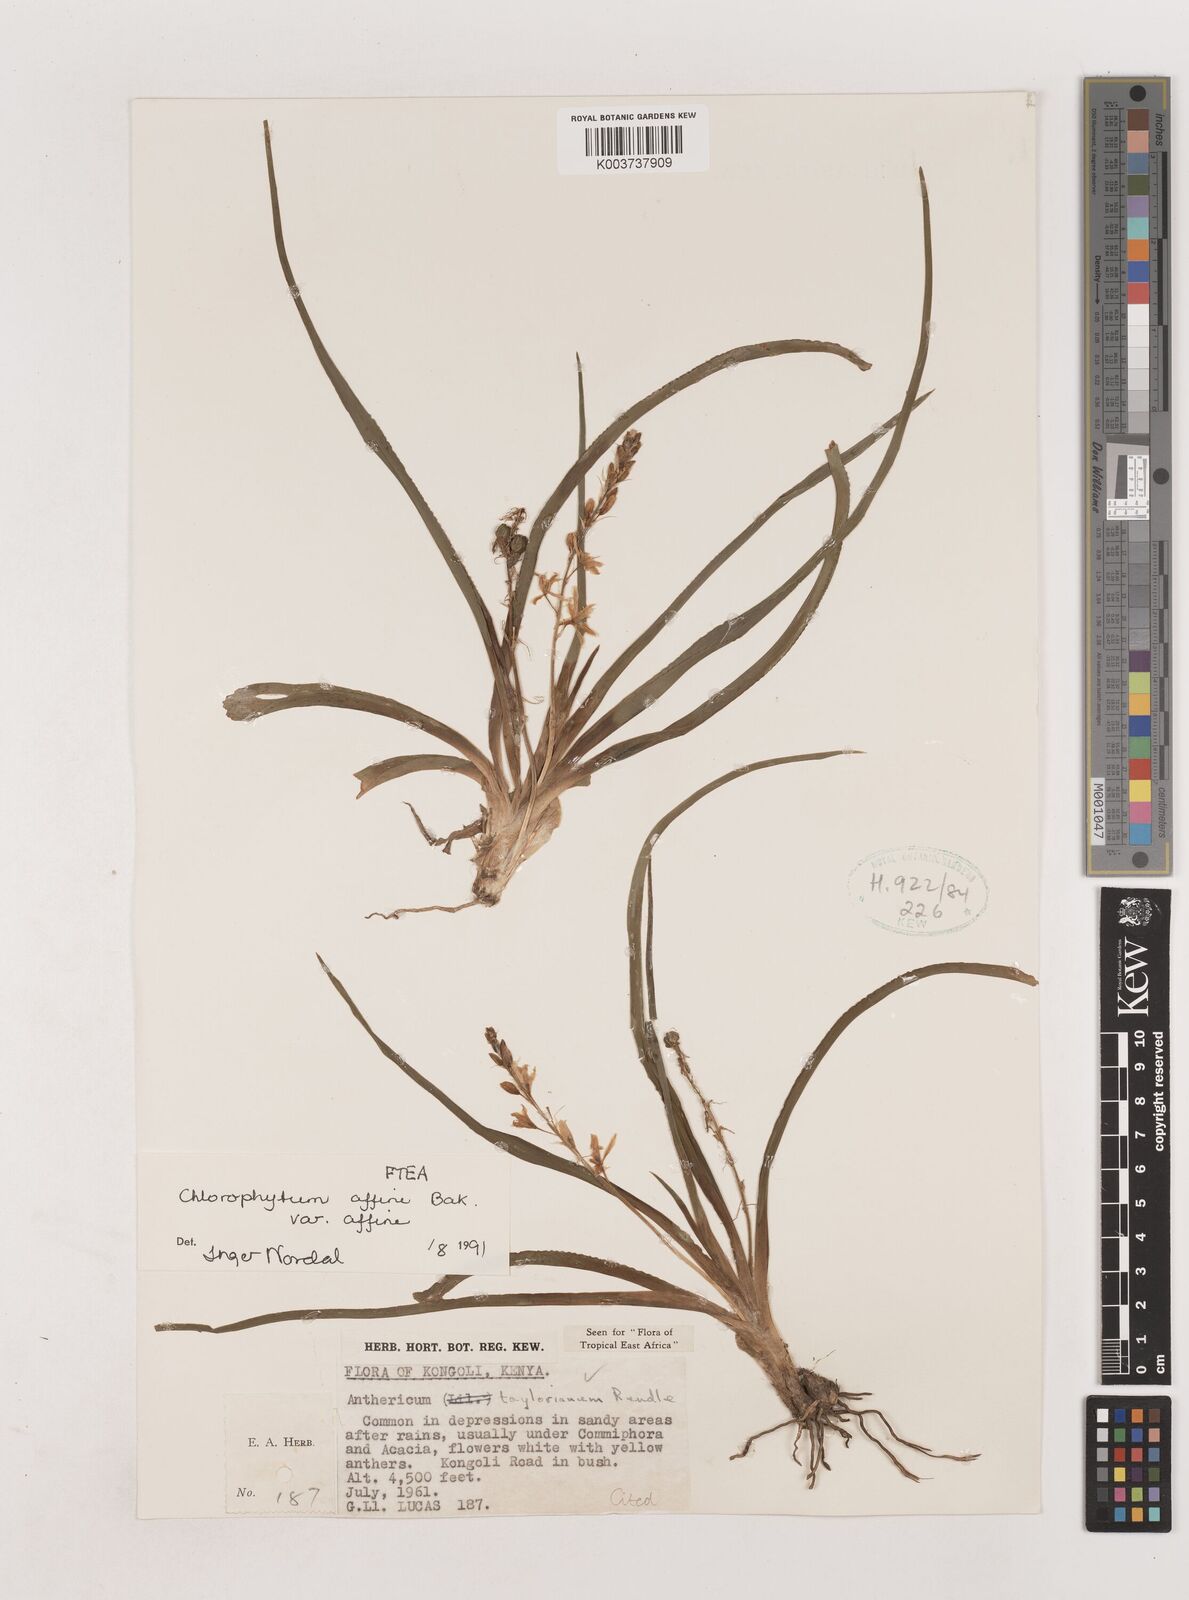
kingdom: Plantae
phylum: Tracheophyta
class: Liliopsida
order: Asparagales
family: Asparagaceae
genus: Chlorophytum
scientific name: Chlorophytum affine
